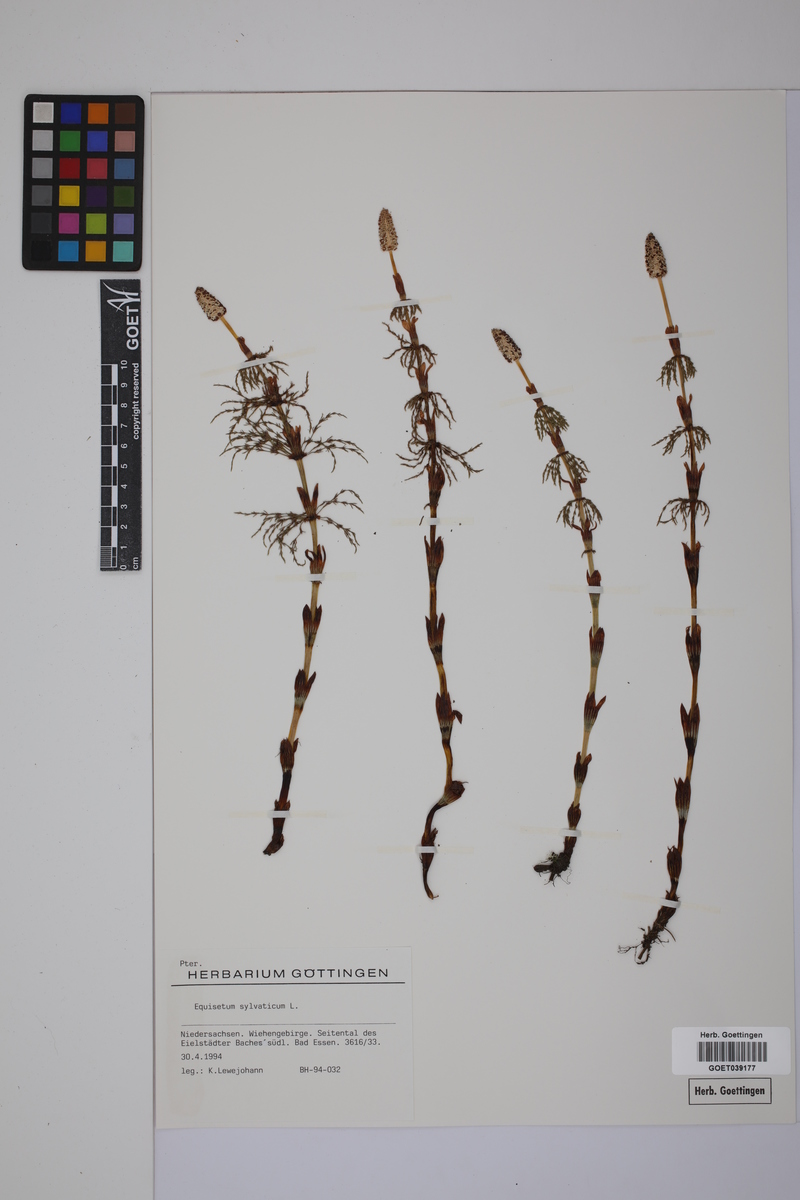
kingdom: Plantae
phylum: Tracheophyta
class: Polypodiopsida
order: Equisetales
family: Equisetaceae
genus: Equisetum
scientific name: Equisetum sylvaticum
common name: Wood horsetail
